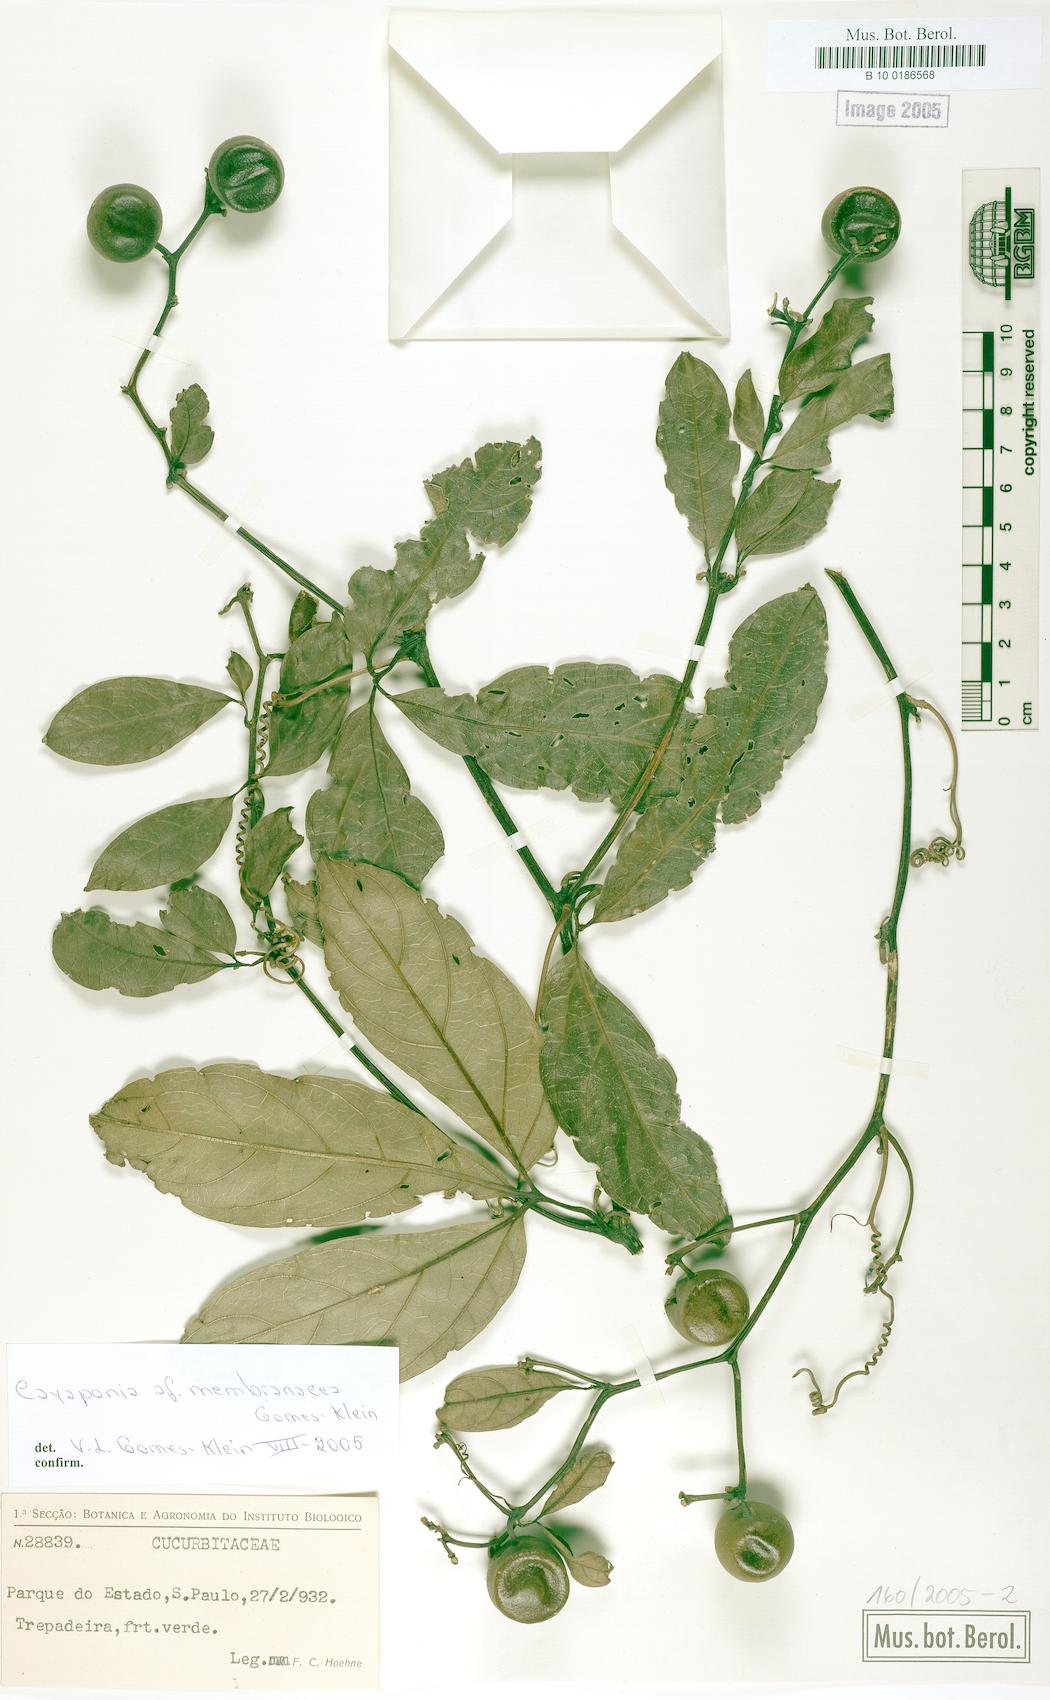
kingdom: Plantae
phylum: Tracheophyta
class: Magnoliopsida
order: Cucurbitales
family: Cucurbitaceae
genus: Cayaponia
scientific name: Cayaponia membranacea
